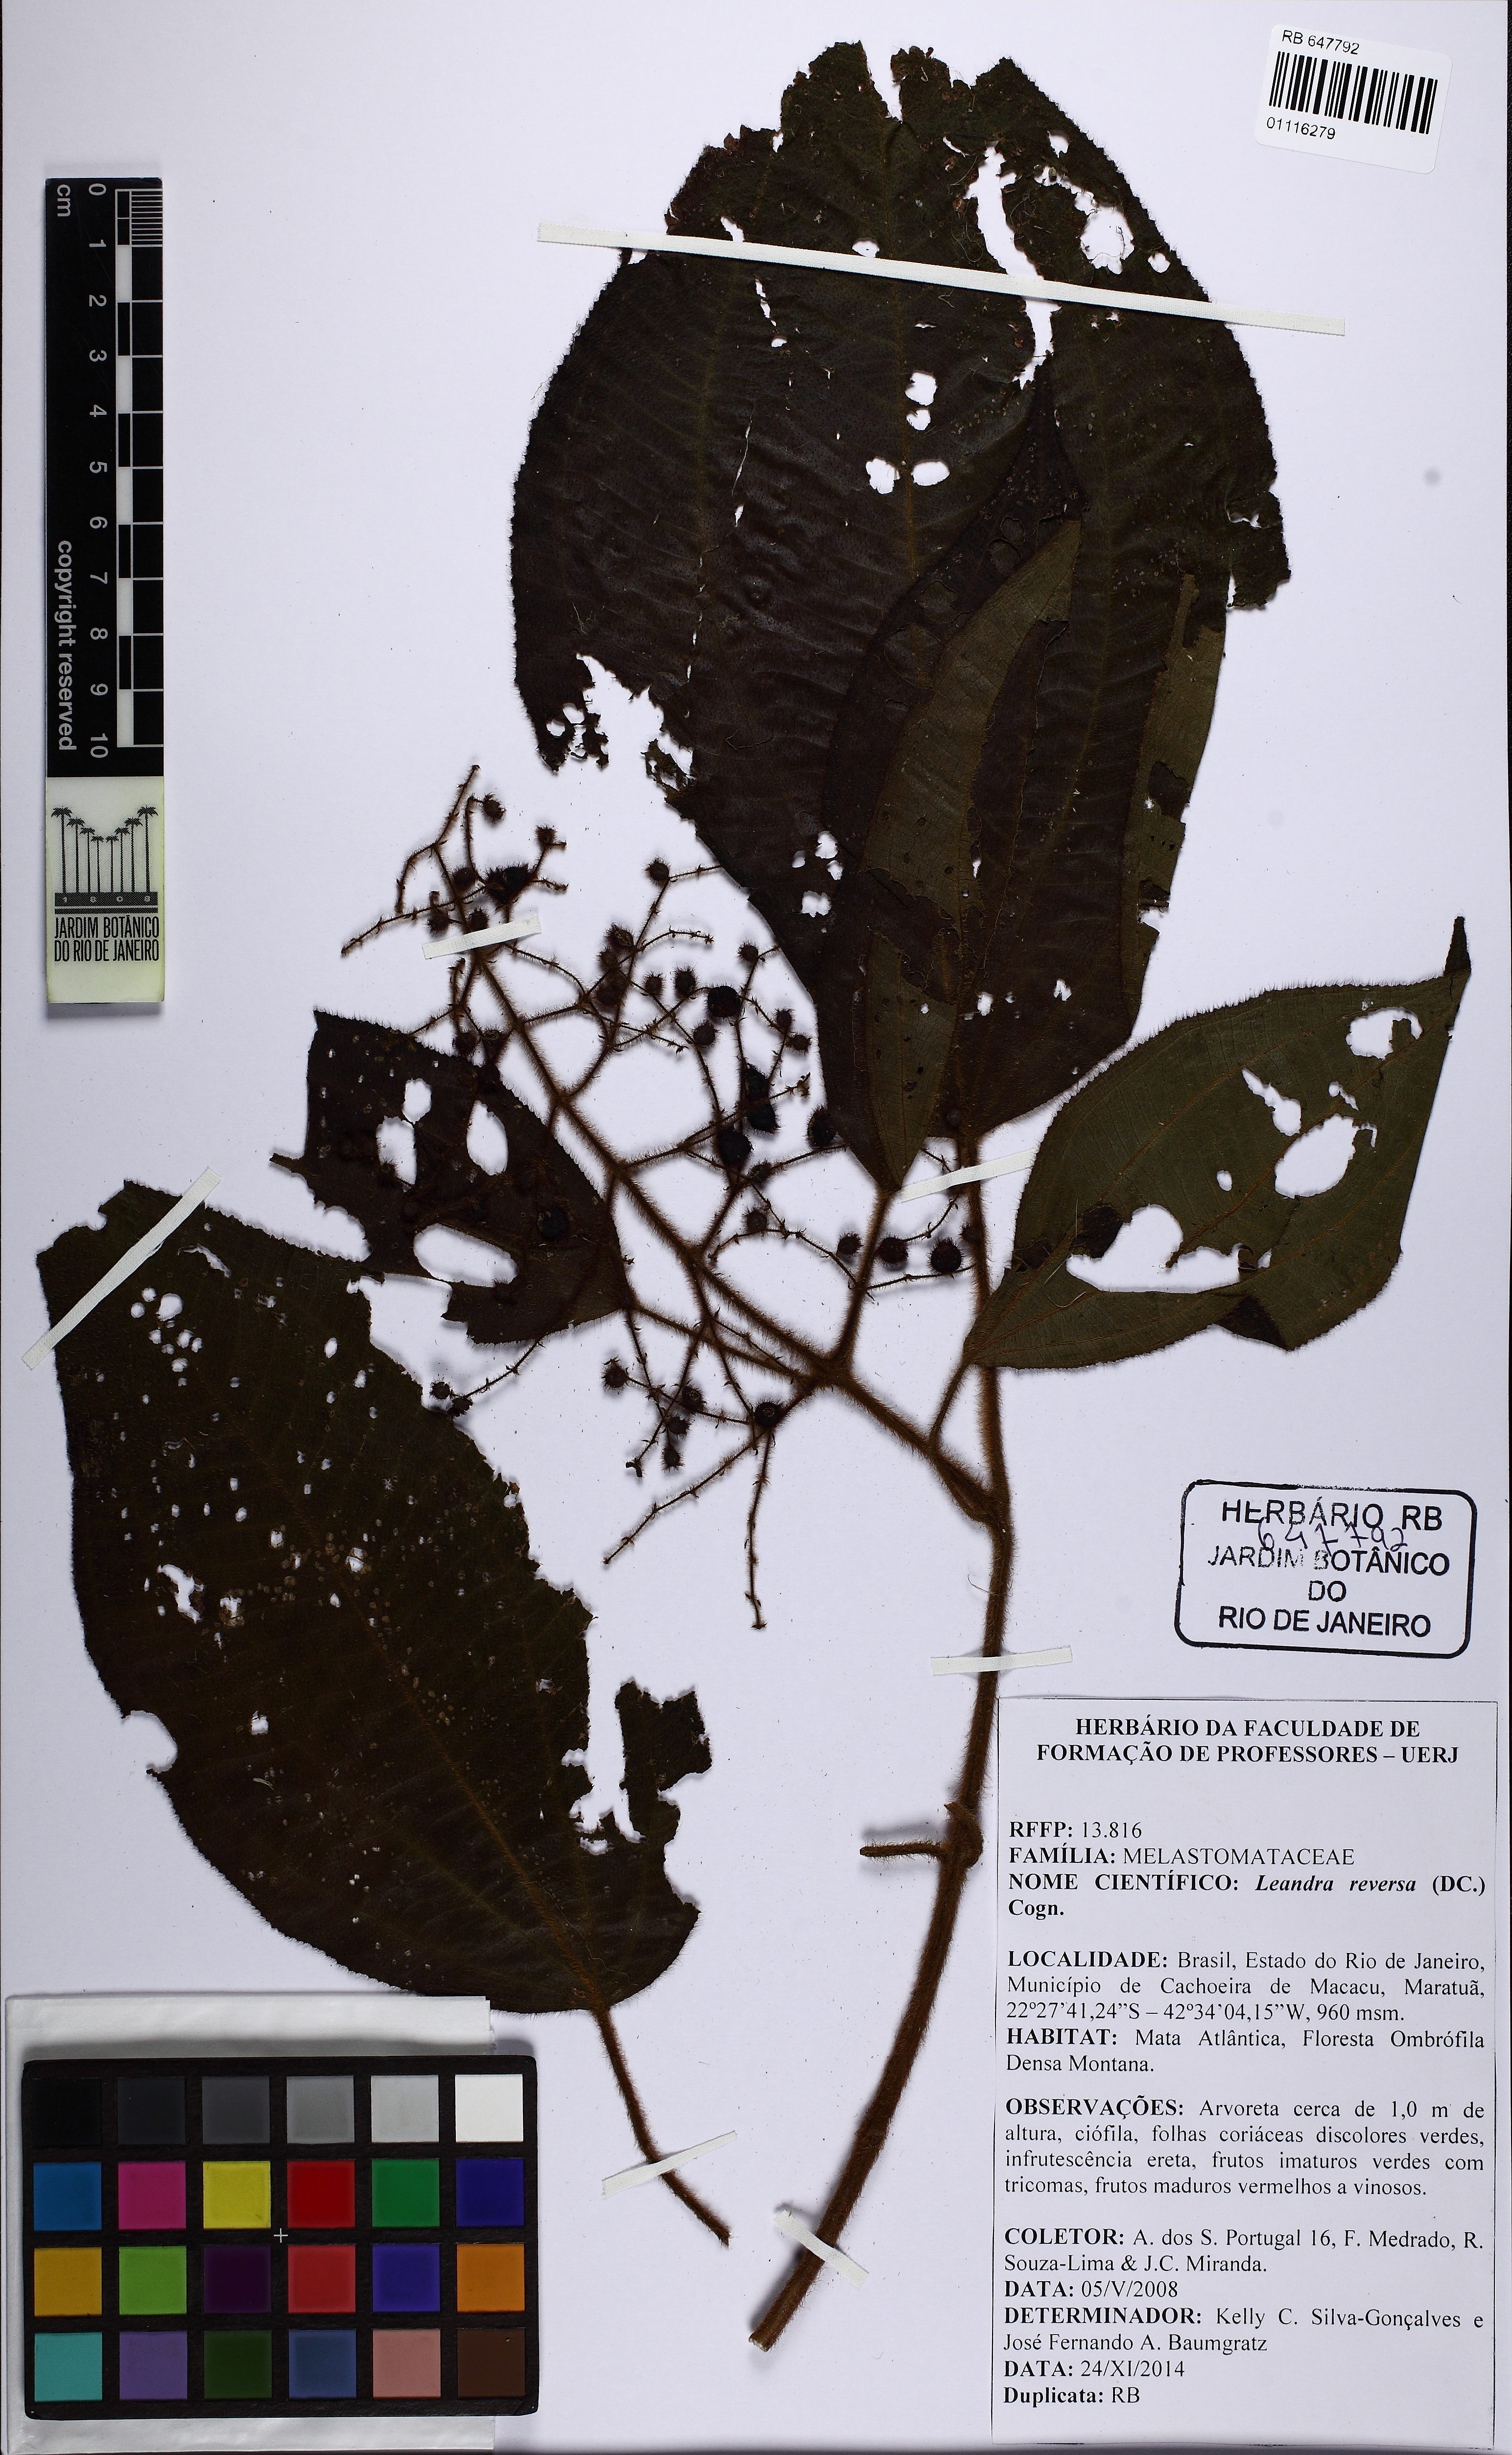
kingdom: Plantae
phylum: Tracheophyta
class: Magnoliopsida
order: Myrtales
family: Melastomataceae
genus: Miconia
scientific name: Miconia reversa
